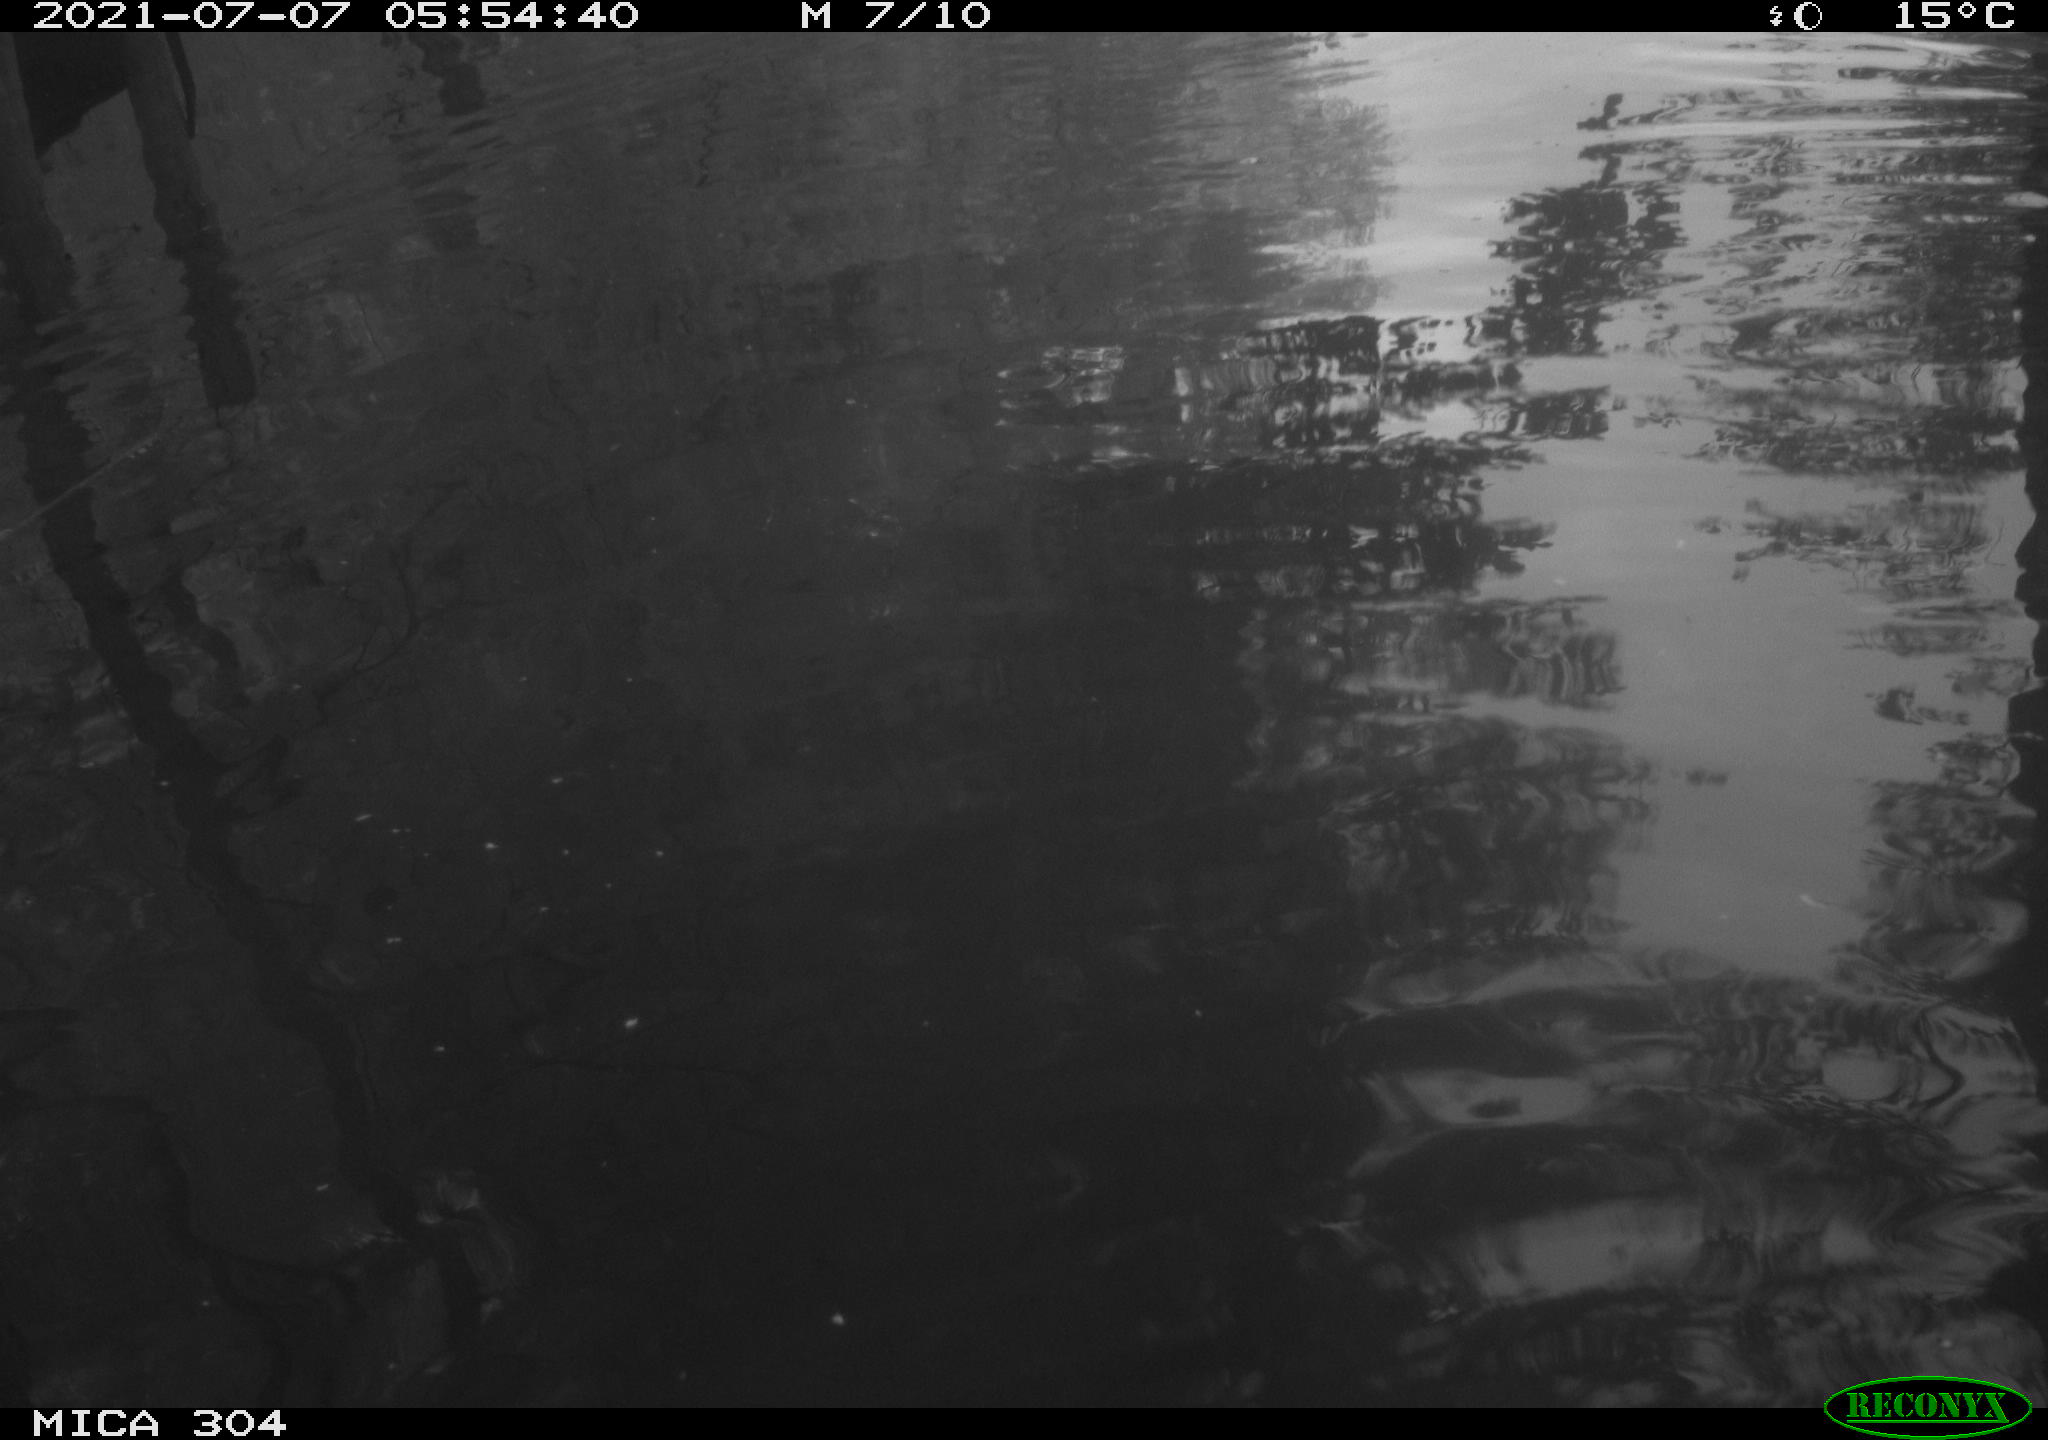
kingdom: Animalia
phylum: Chordata
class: Aves
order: Anseriformes
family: Anatidae
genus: Anas
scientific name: Anas platyrhynchos
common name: Mallard
